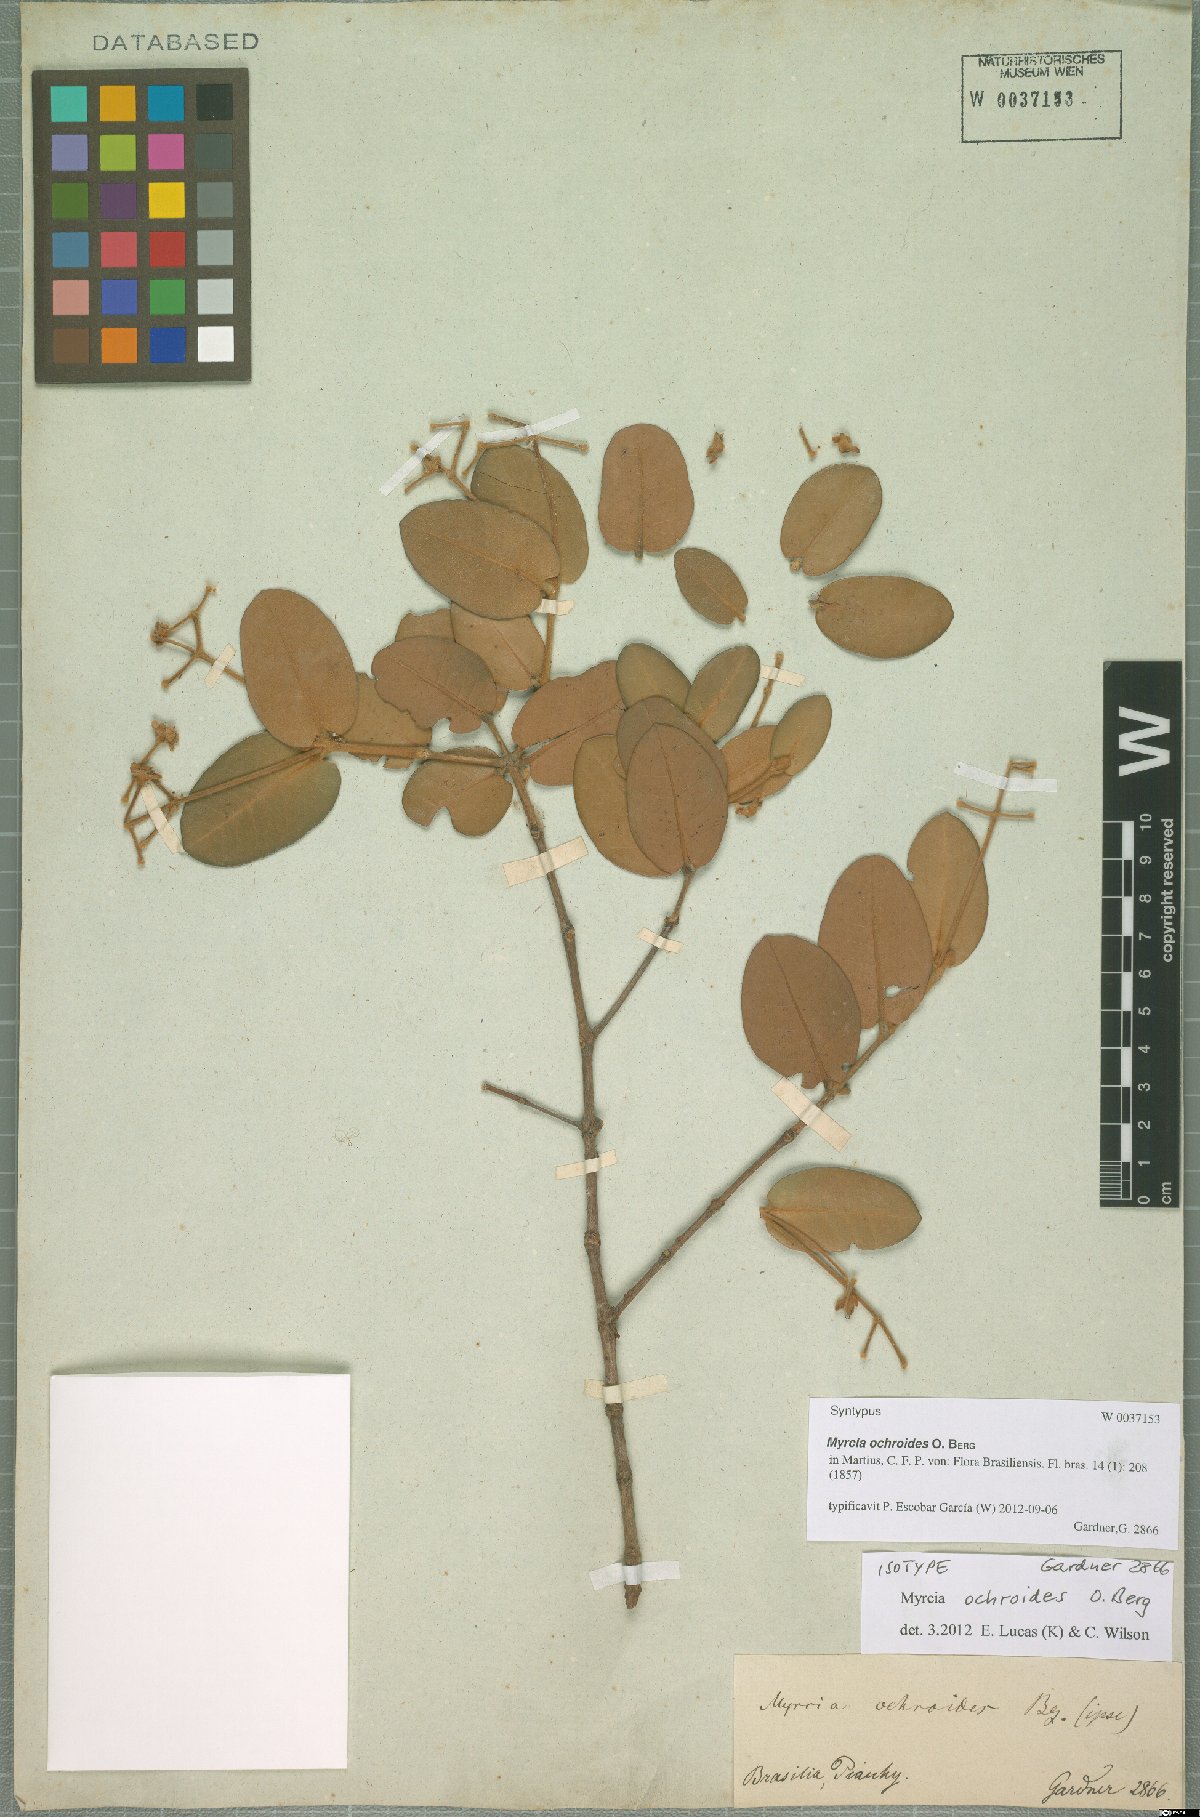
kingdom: Plantae
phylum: Tracheophyta
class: Magnoliopsida
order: Myrtales
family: Myrtaceae
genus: Myrcia
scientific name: Myrcia ochroides
